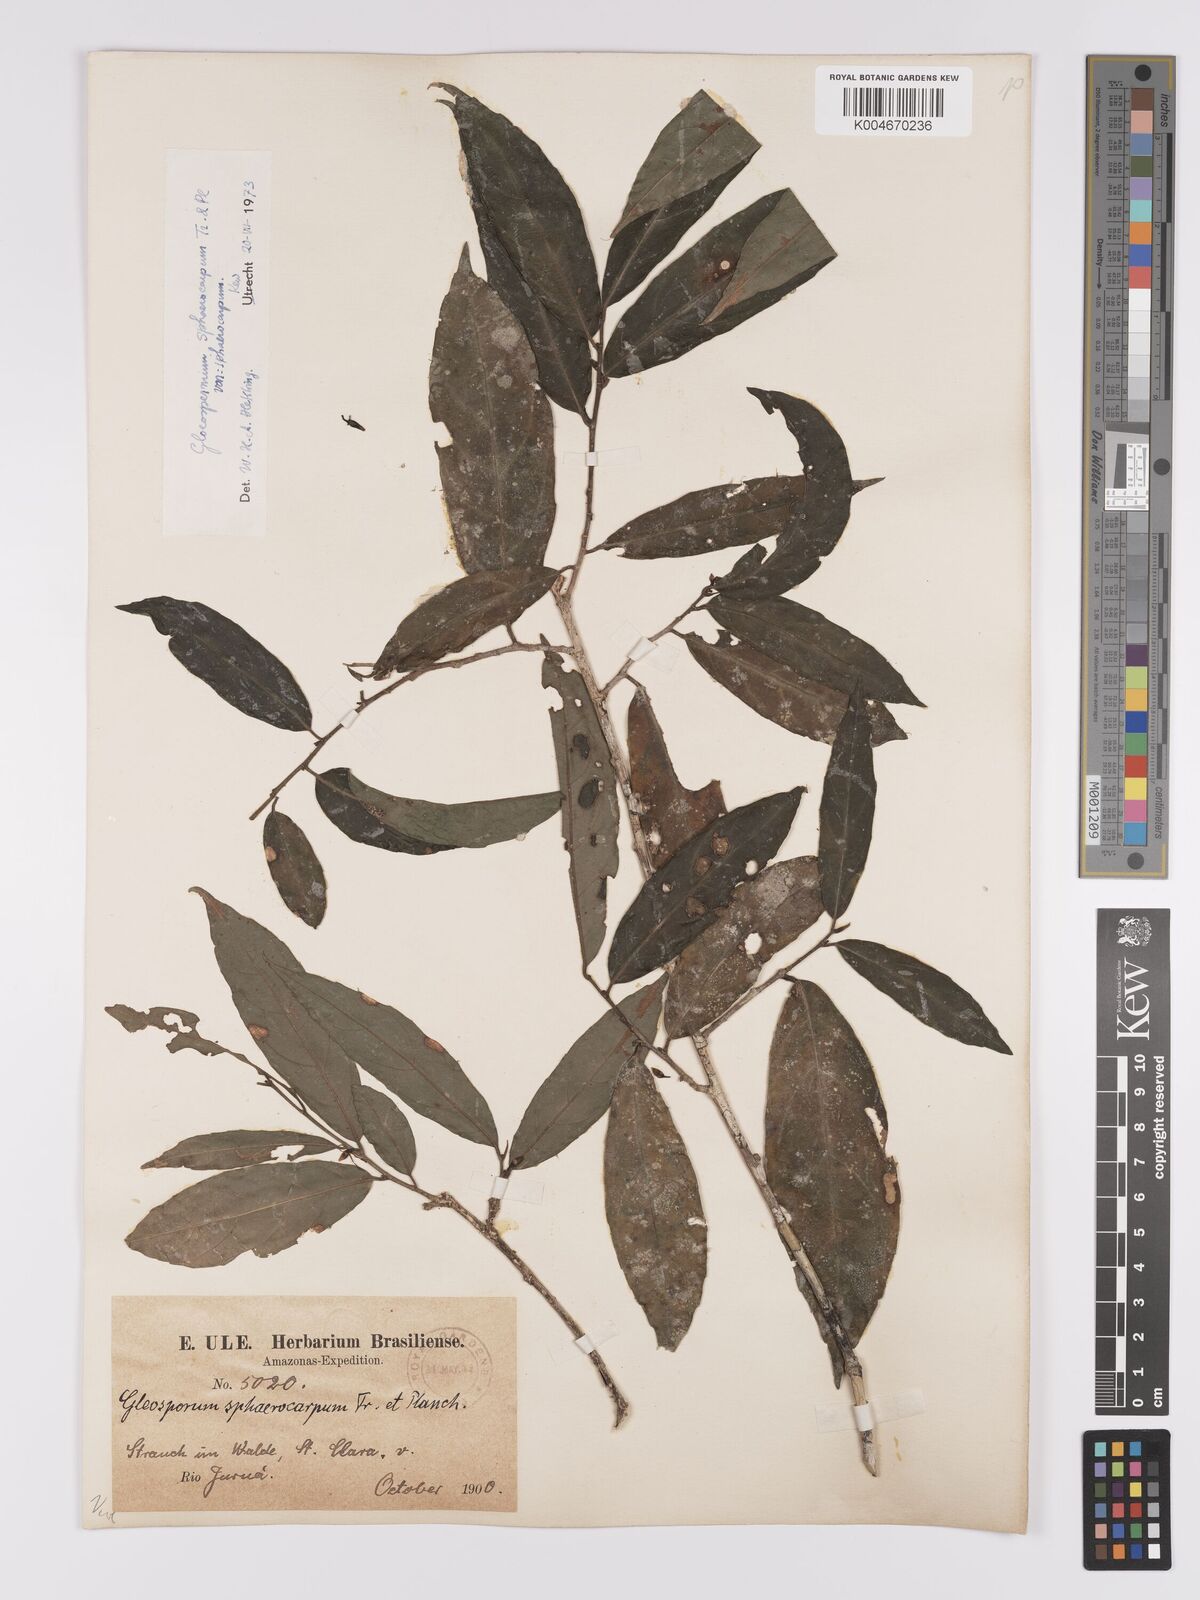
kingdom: Plantae
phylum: Tracheophyta
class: Magnoliopsida
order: Malpighiales
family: Violaceae
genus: Gloeospermum
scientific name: Gloeospermum sphaerocarpum
